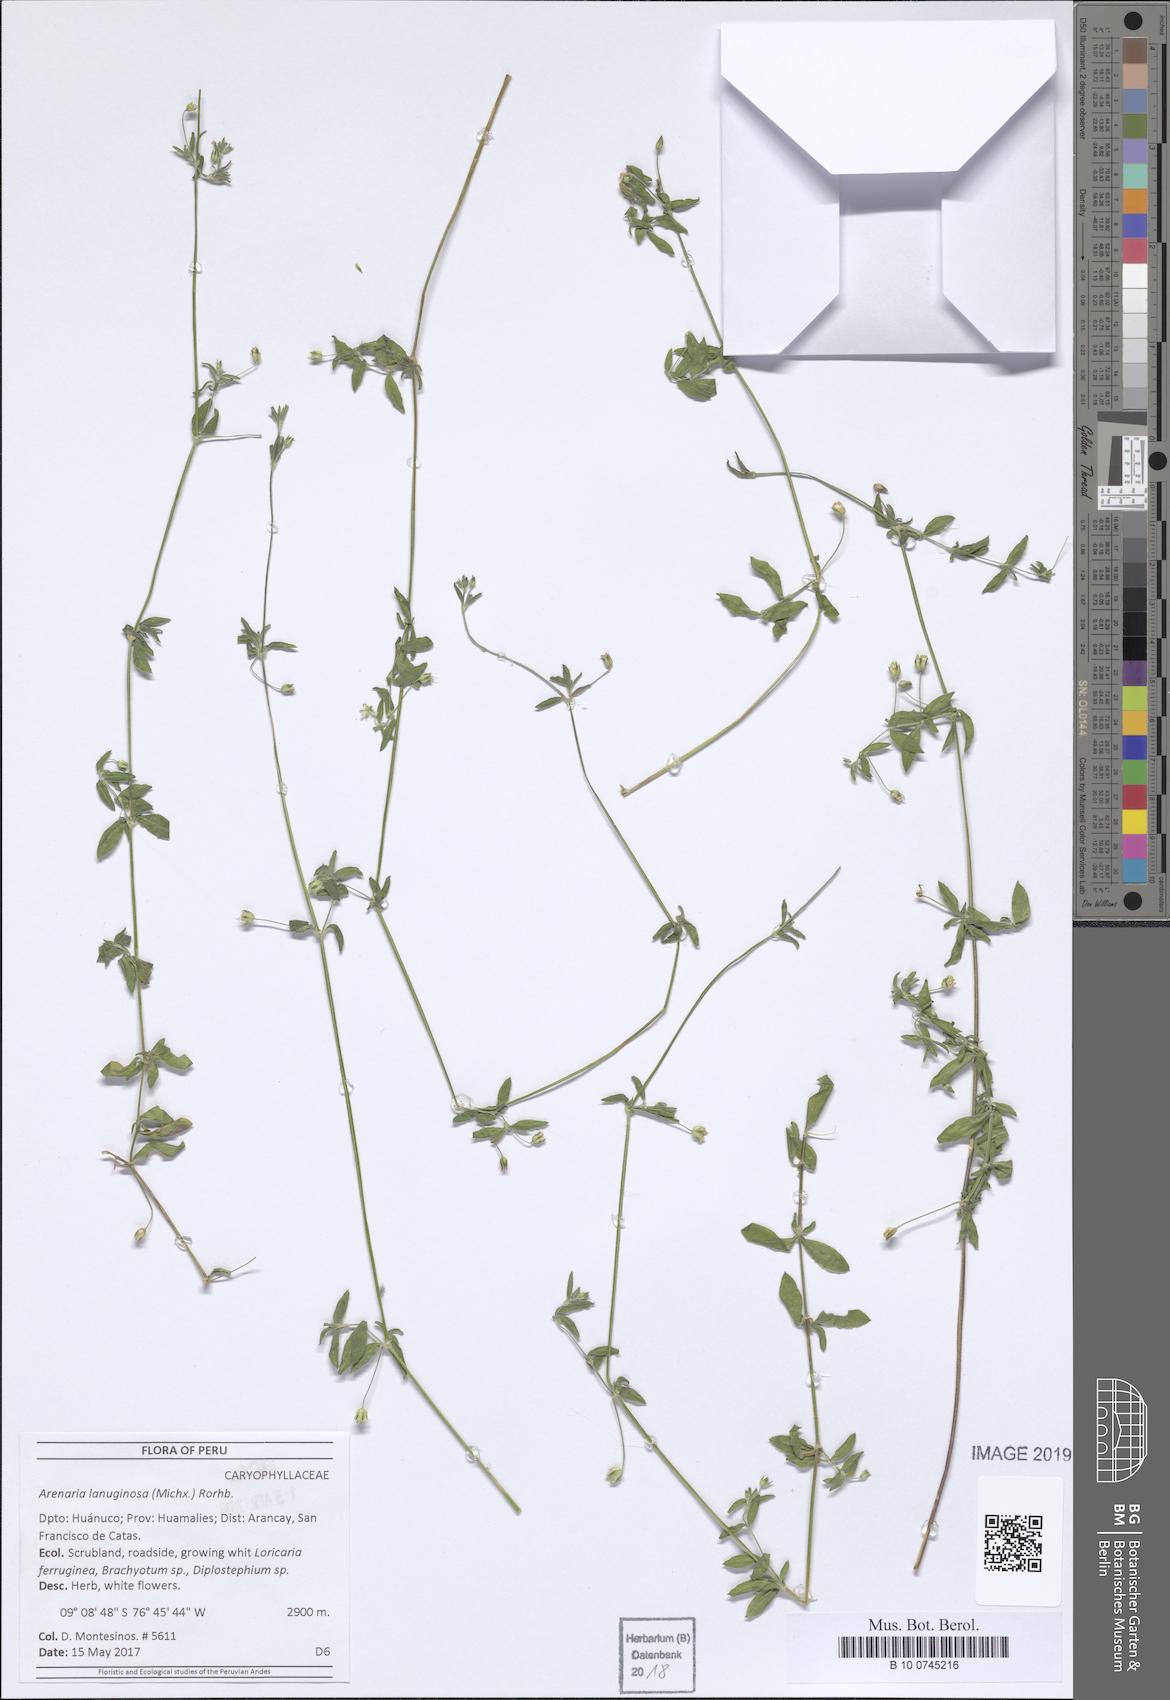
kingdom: Plantae
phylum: Tracheophyta
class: Magnoliopsida
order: Caryophyllales
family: Caryophyllaceae
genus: Arenaria
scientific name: Arenaria lanuginosa
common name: Spread sandwort
